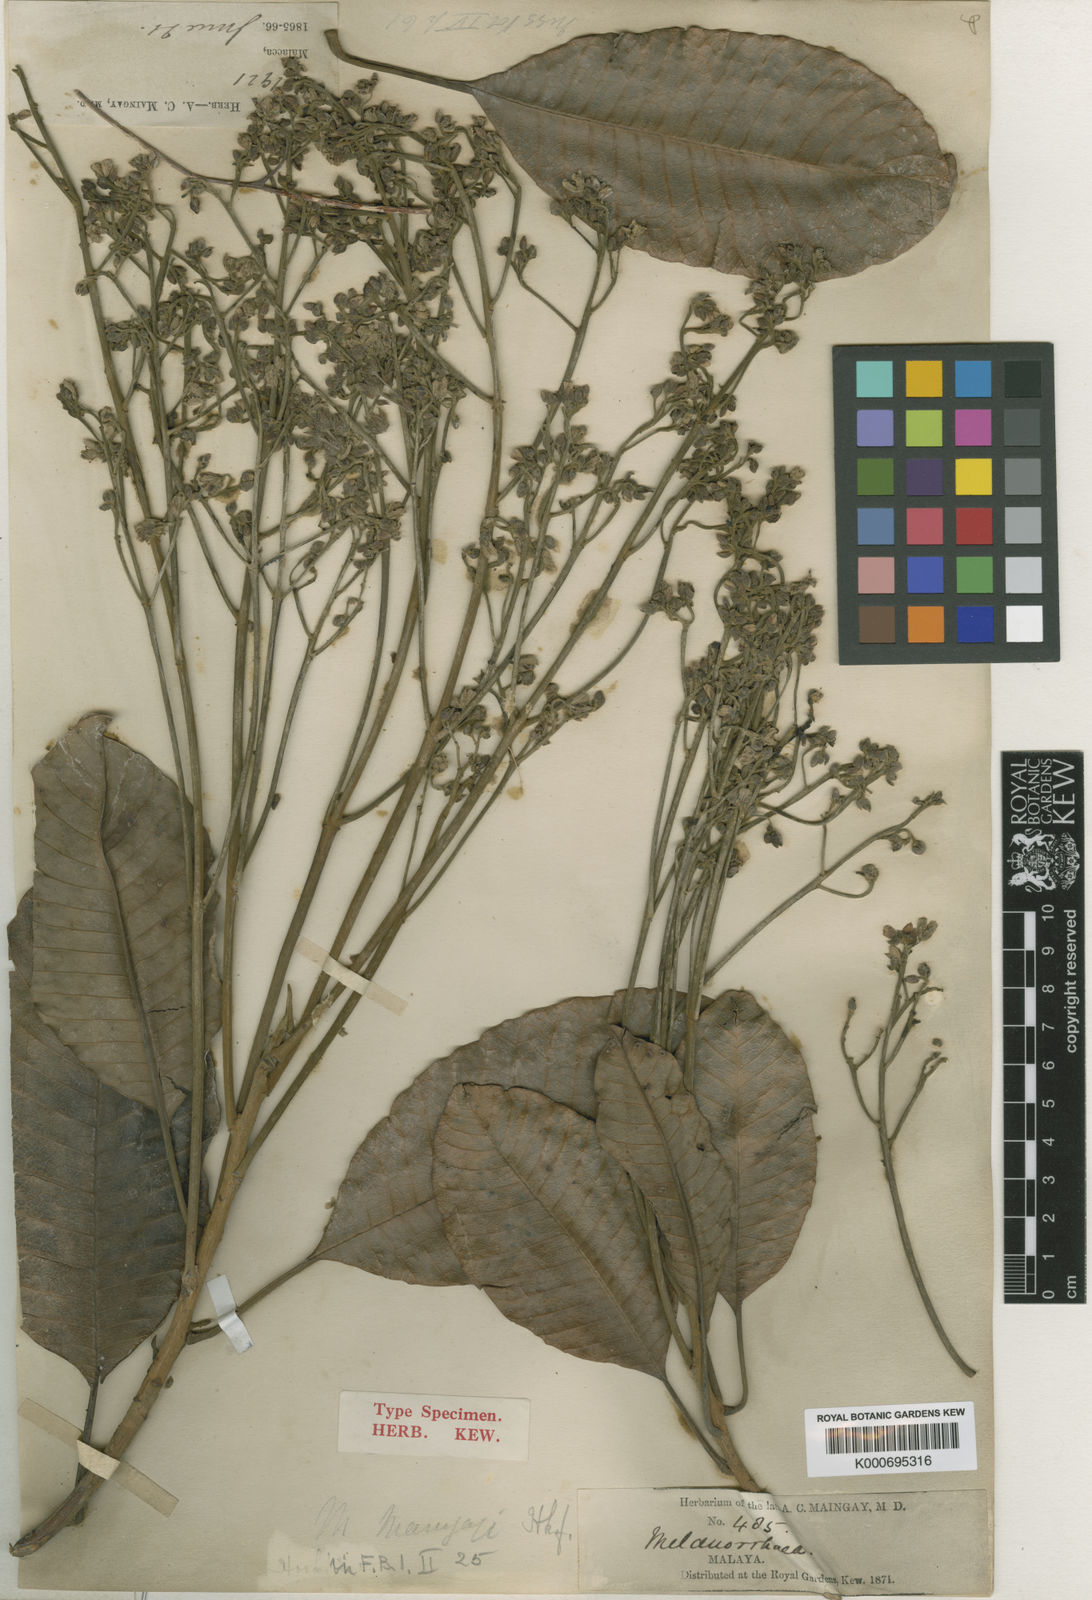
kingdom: Plantae
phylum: Tracheophyta
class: Magnoliopsida
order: Sapindales
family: Anacardiaceae
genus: Gluta
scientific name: Gluta wallichii
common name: Common rengas
